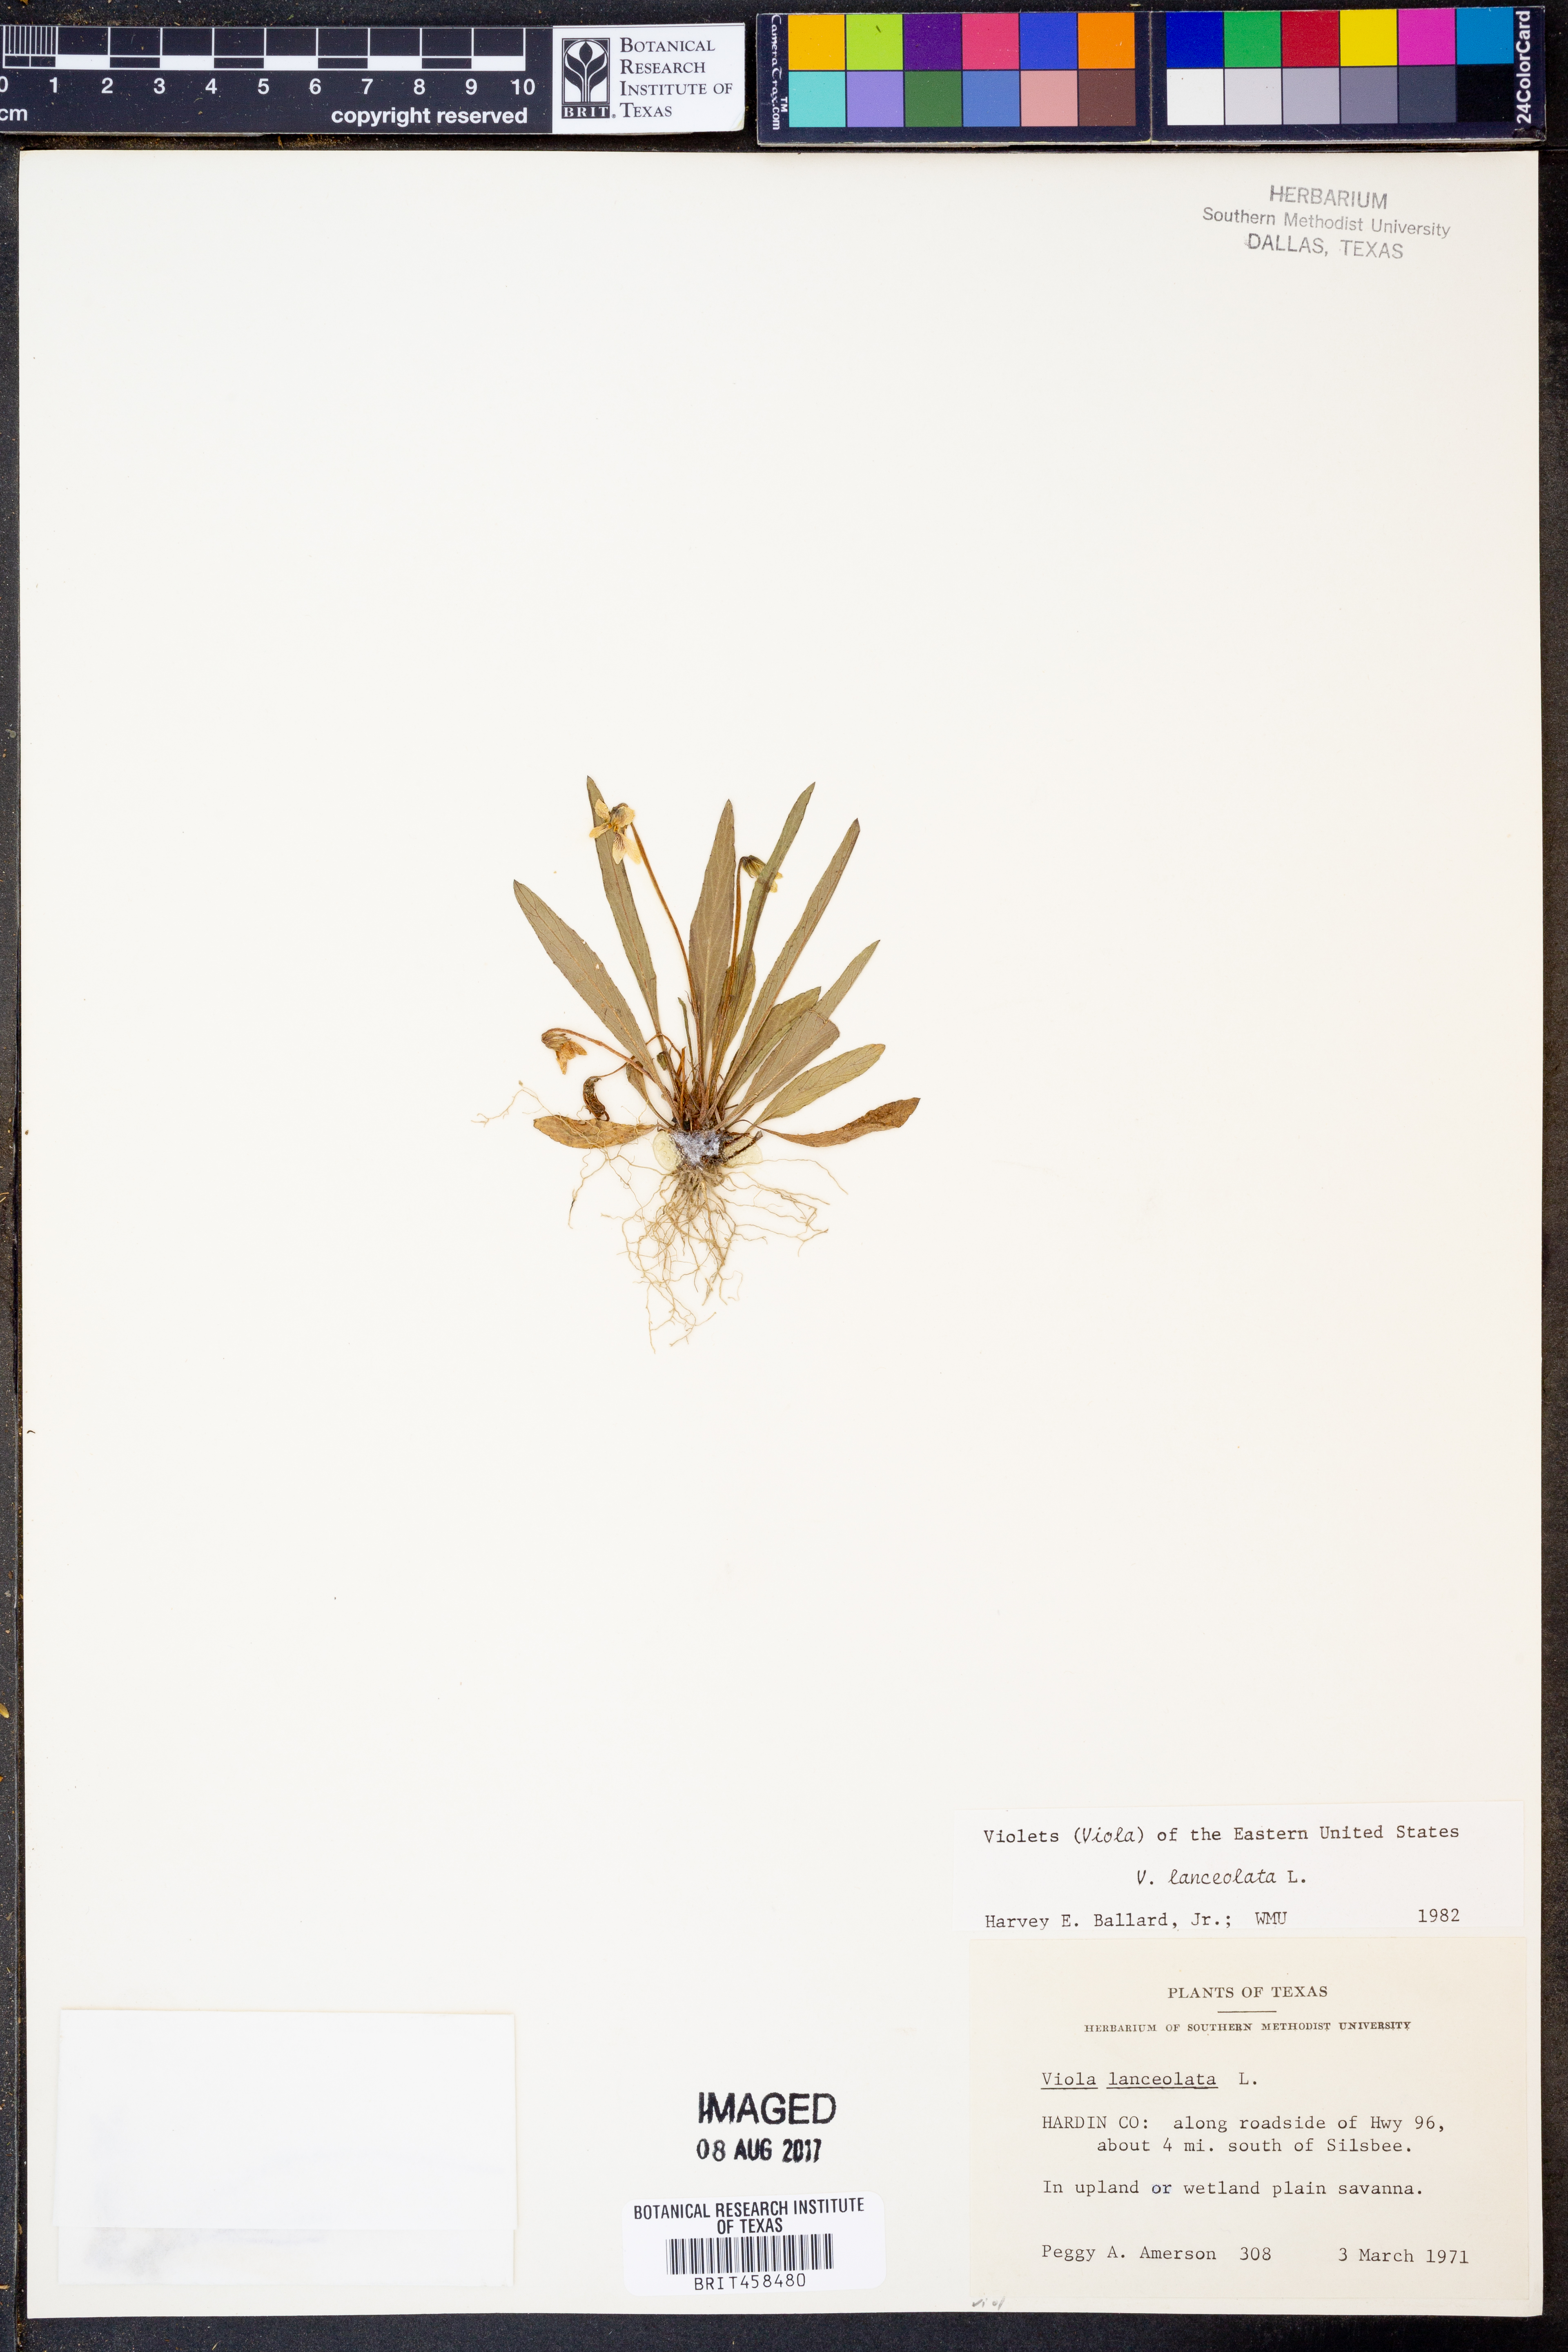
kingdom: Plantae
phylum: Tracheophyta
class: Magnoliopsida
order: Malpighiales
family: Violaceae
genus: Viola
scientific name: Viola lanceolata
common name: Bog white violet
